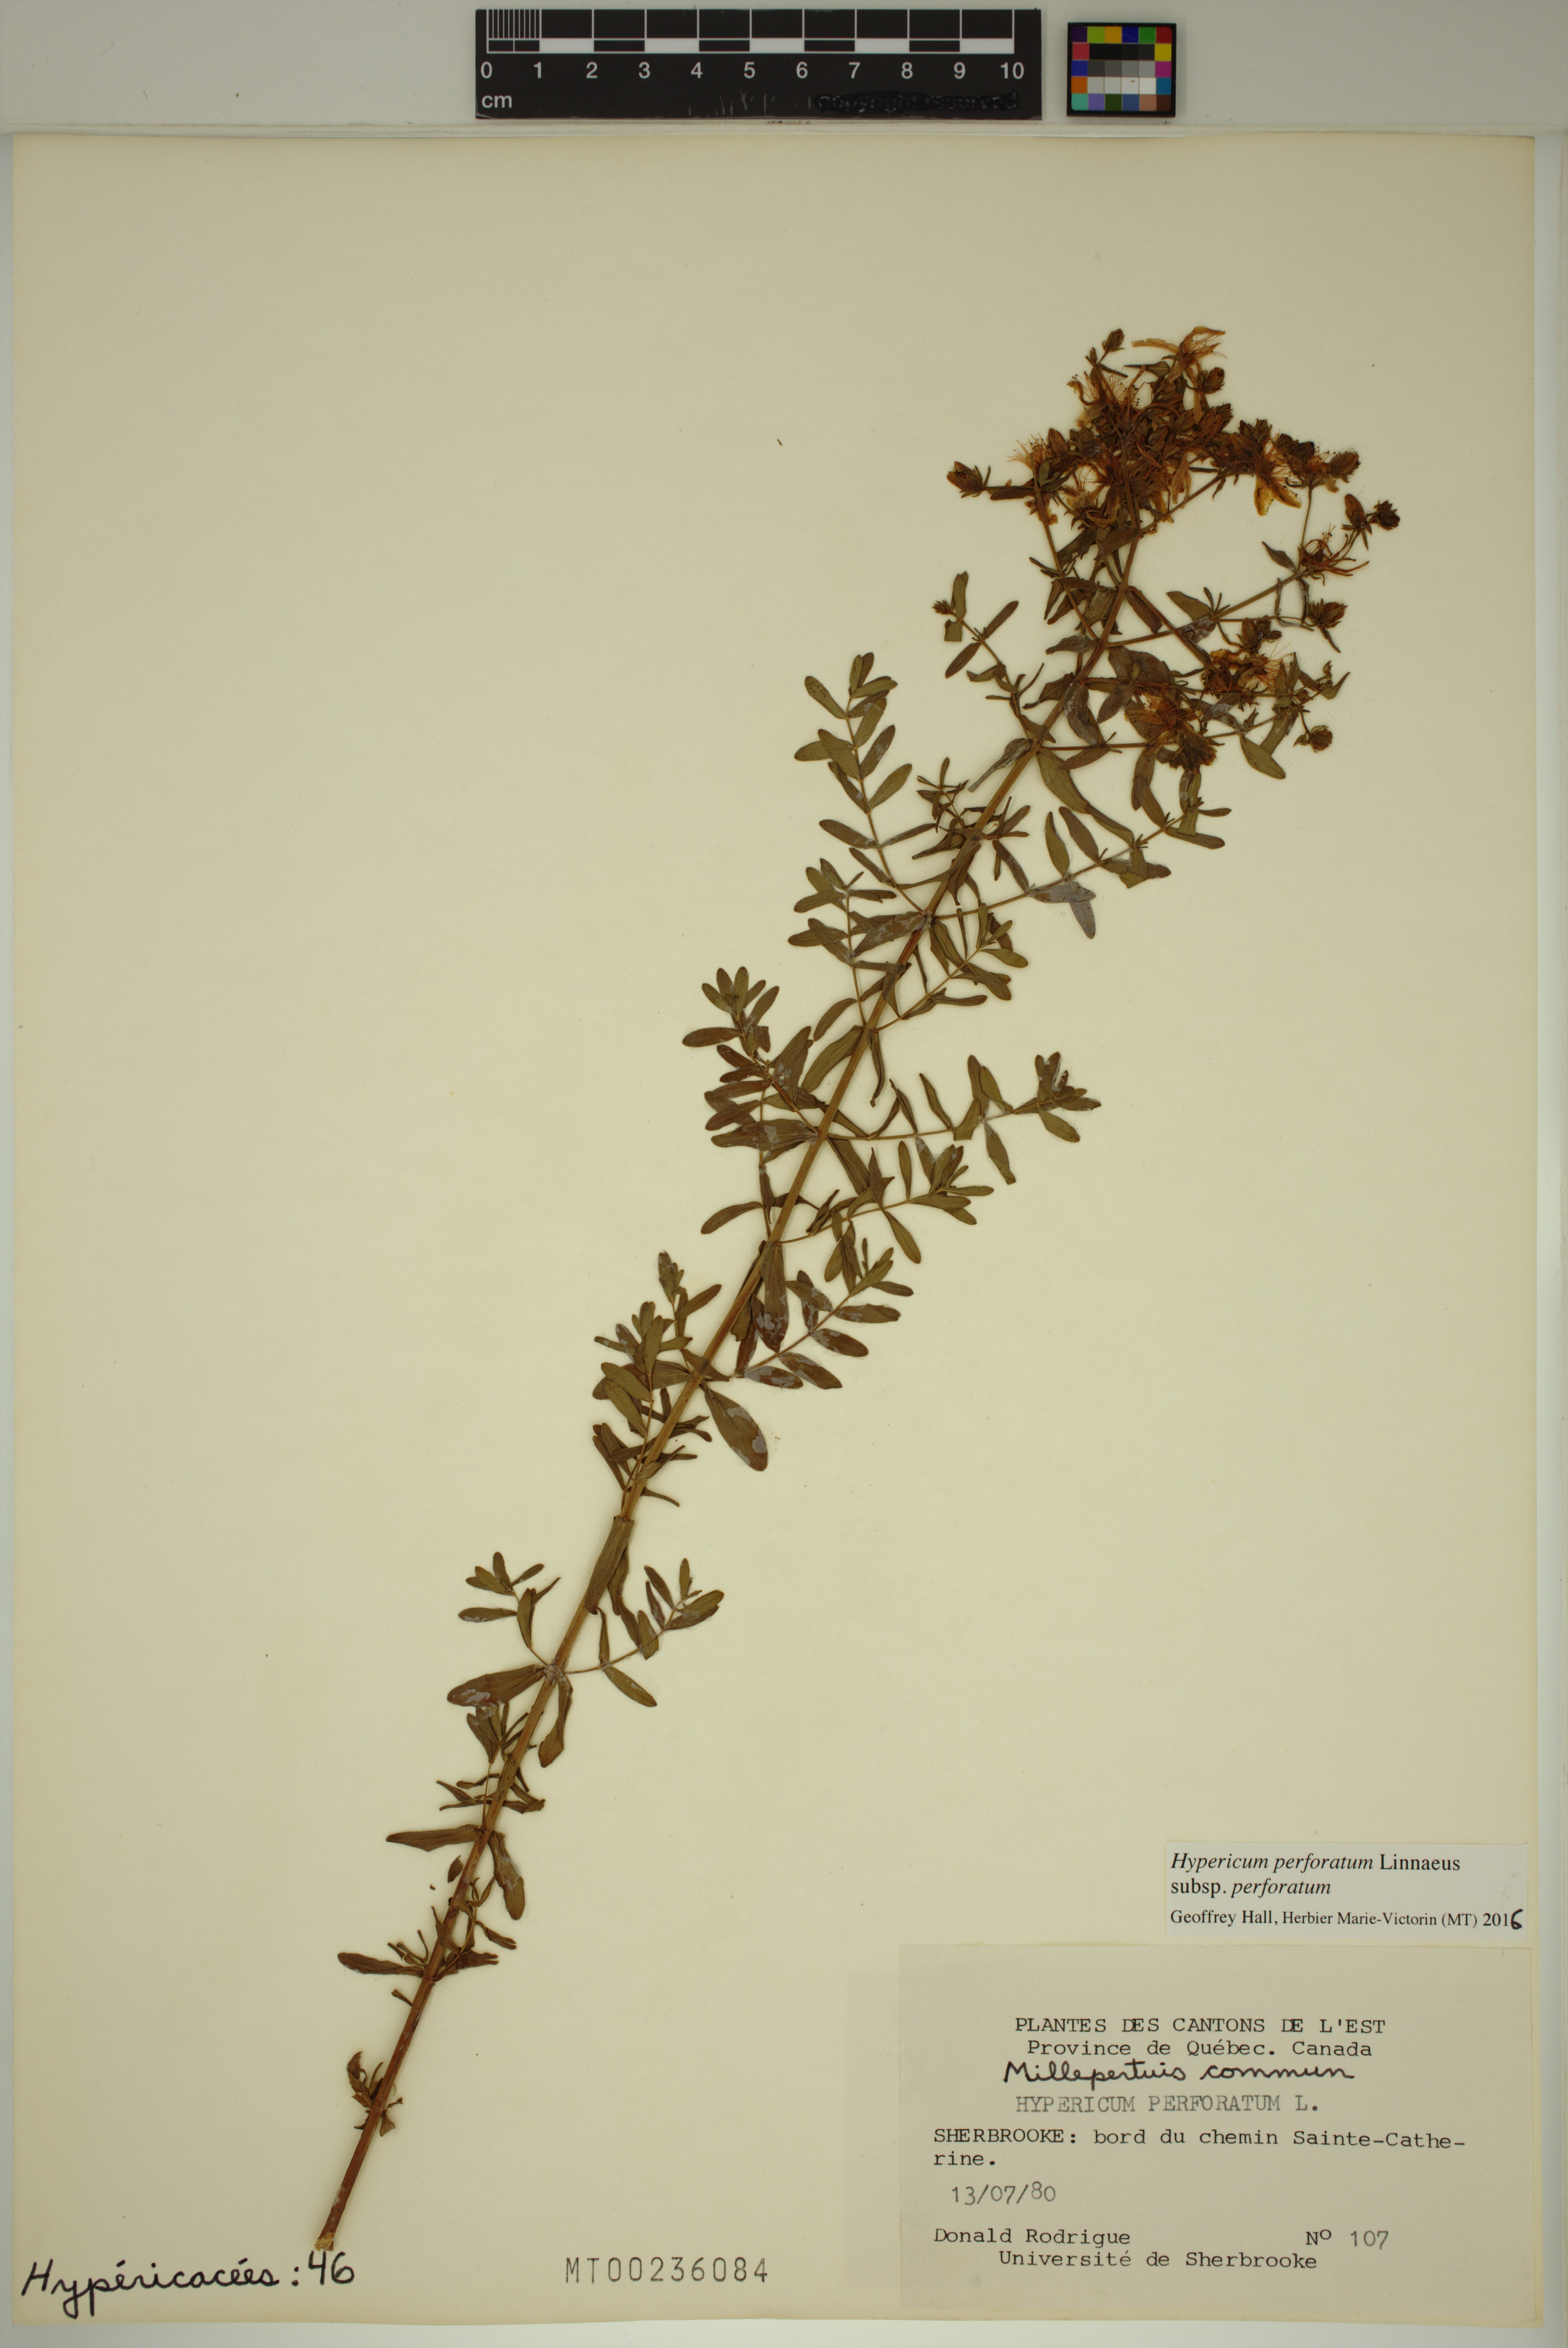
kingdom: Plantae
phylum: Tracheophyta
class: Magnoliopsida
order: Malpighiales
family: Hypericaceae
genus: Hypericum
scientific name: Hypericum perforatum
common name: Common st. johnswort
